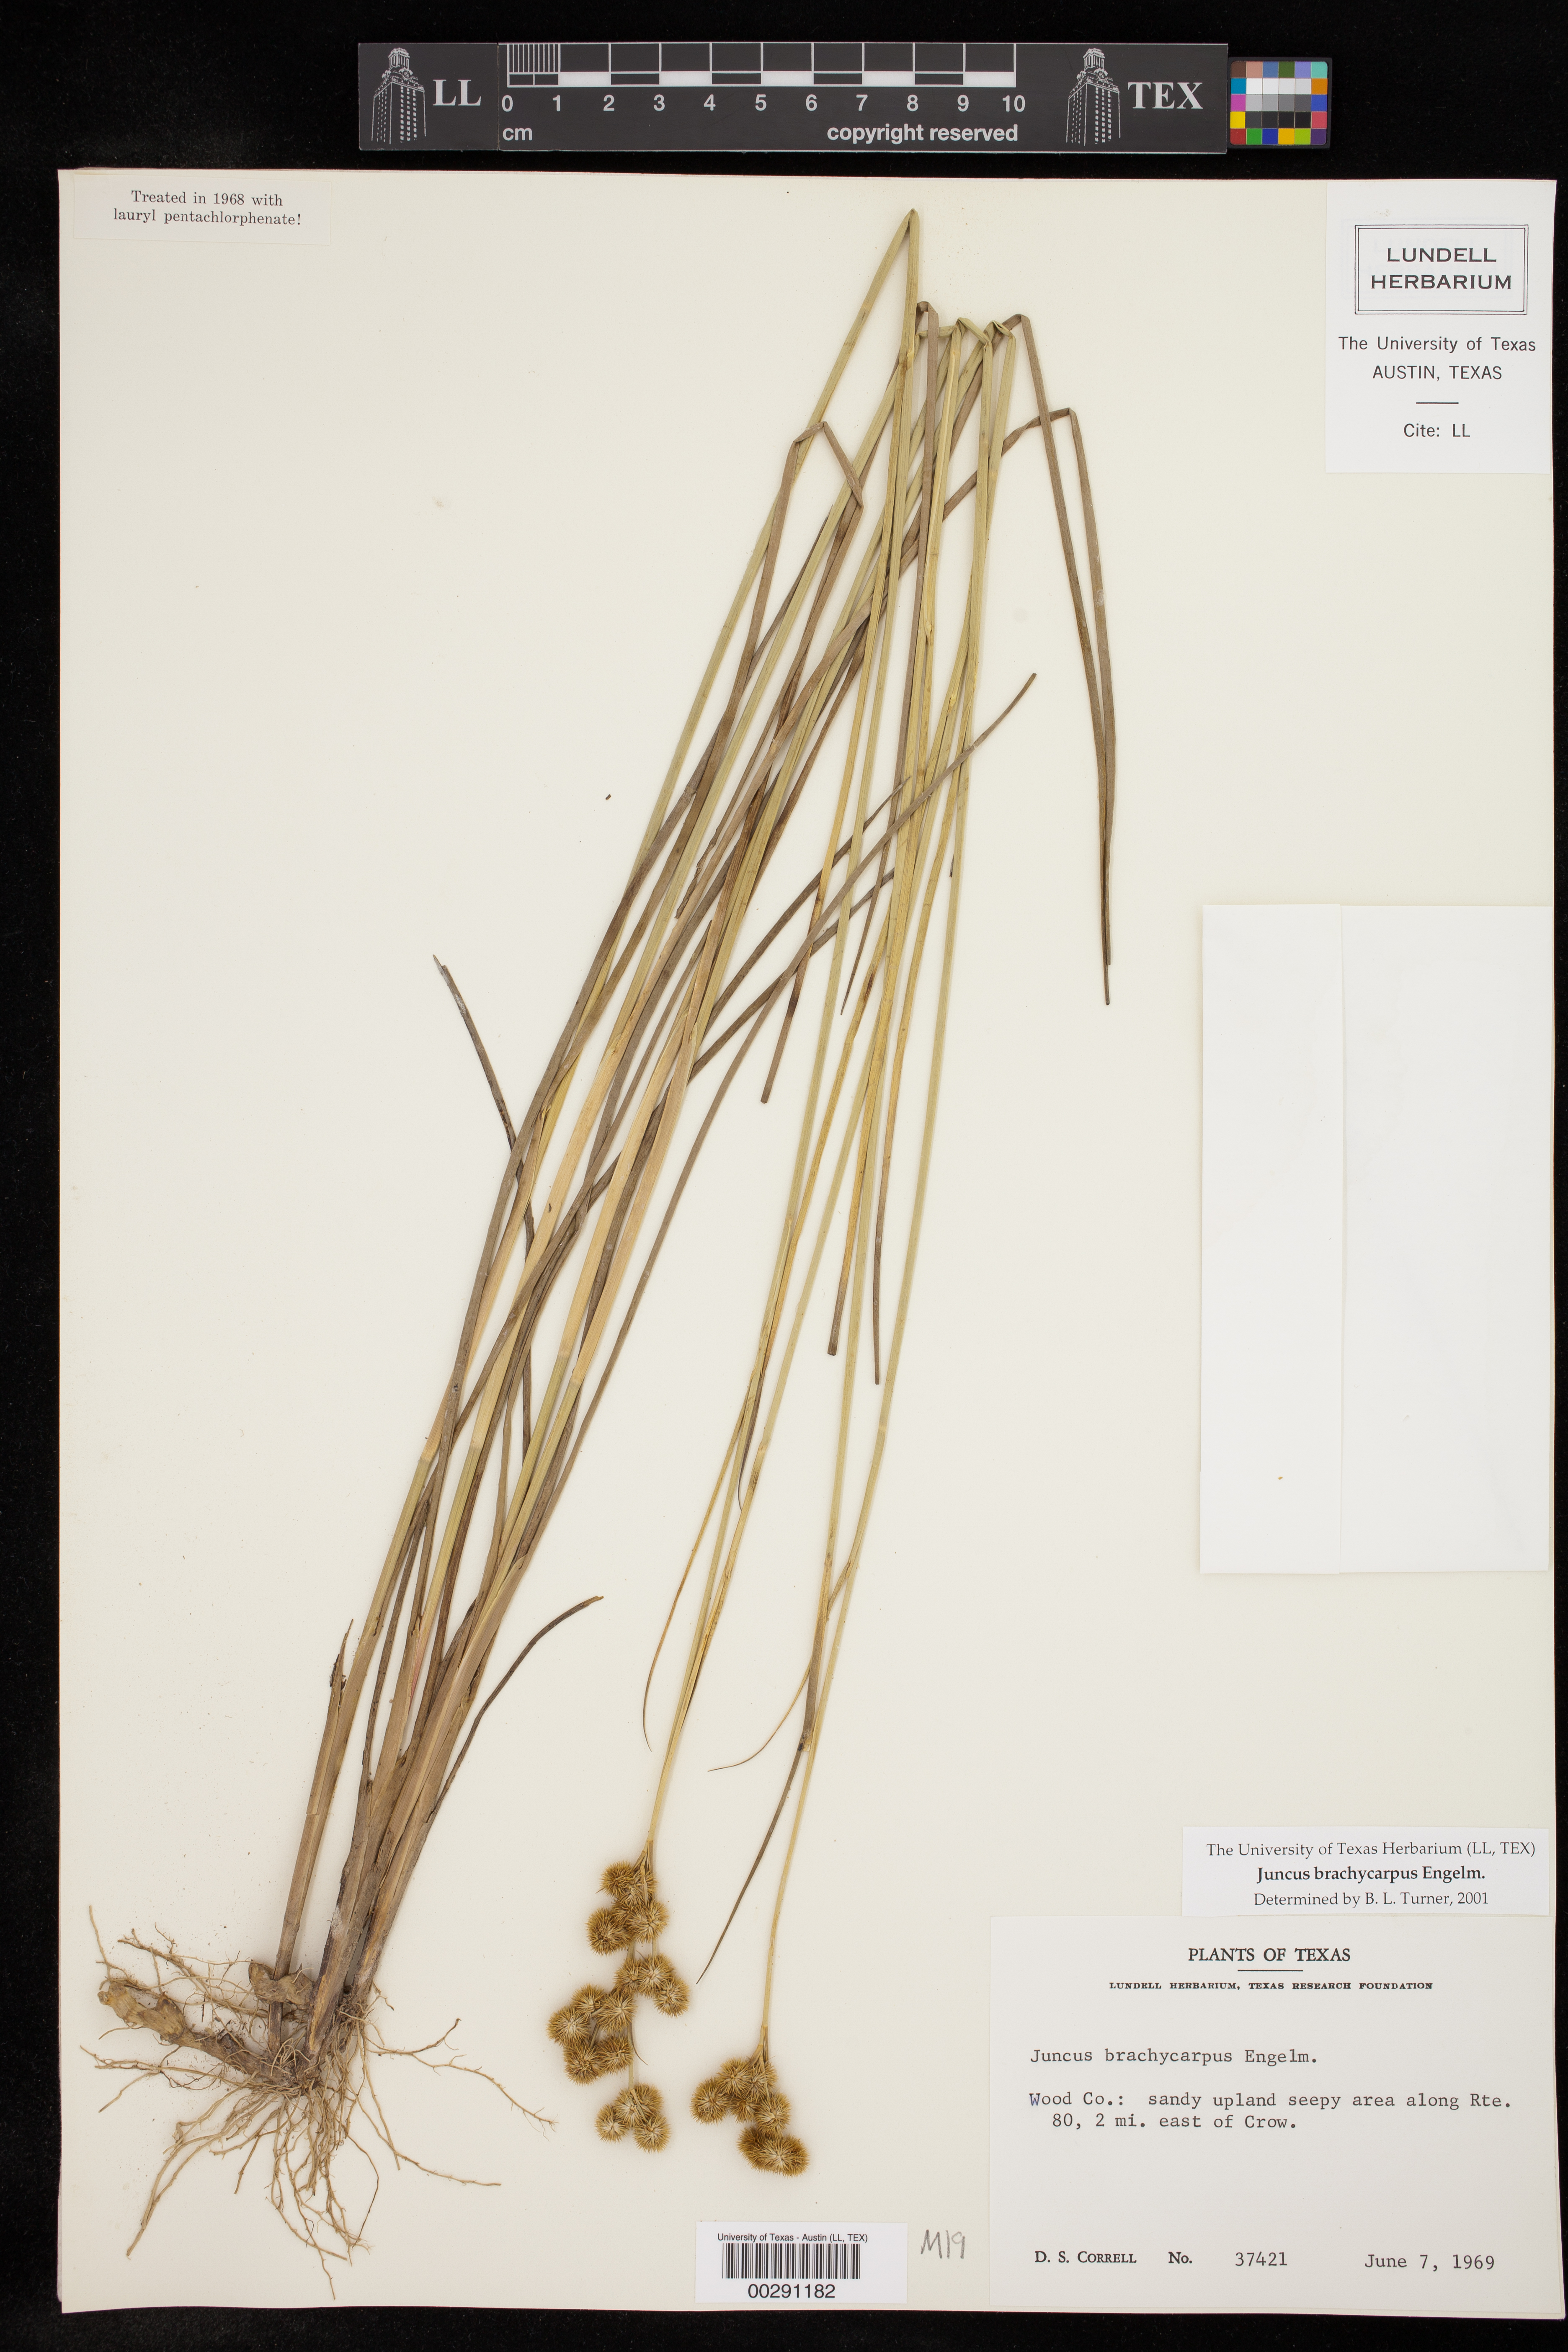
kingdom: Plantae
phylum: Tracheophyta
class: Liliopsida
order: Poales
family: Juncaceae
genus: Juncus
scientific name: Juncus brachycarpus
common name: Shore rush
